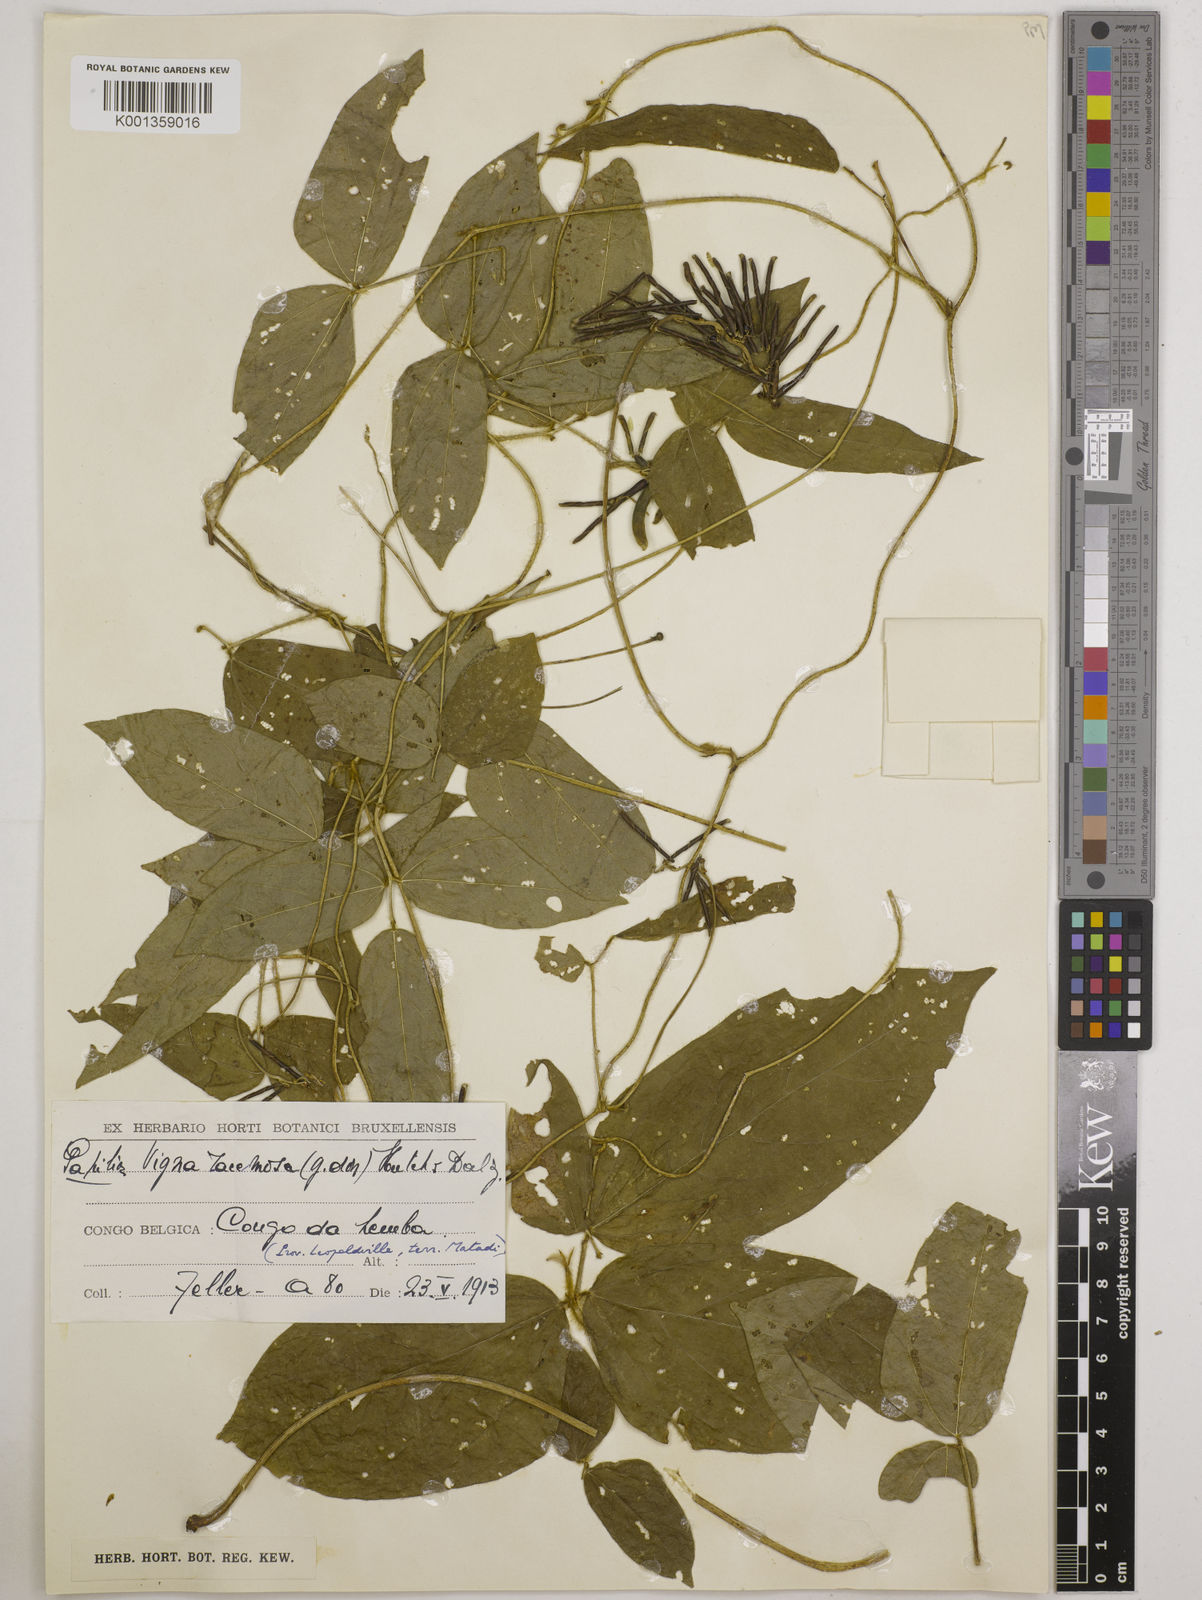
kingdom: Plantae
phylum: Tracheophyta
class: Magnoliopsida
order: Fabales
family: Fabaceae
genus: Vigna
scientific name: Vigna racemosa
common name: Beans not eaten
